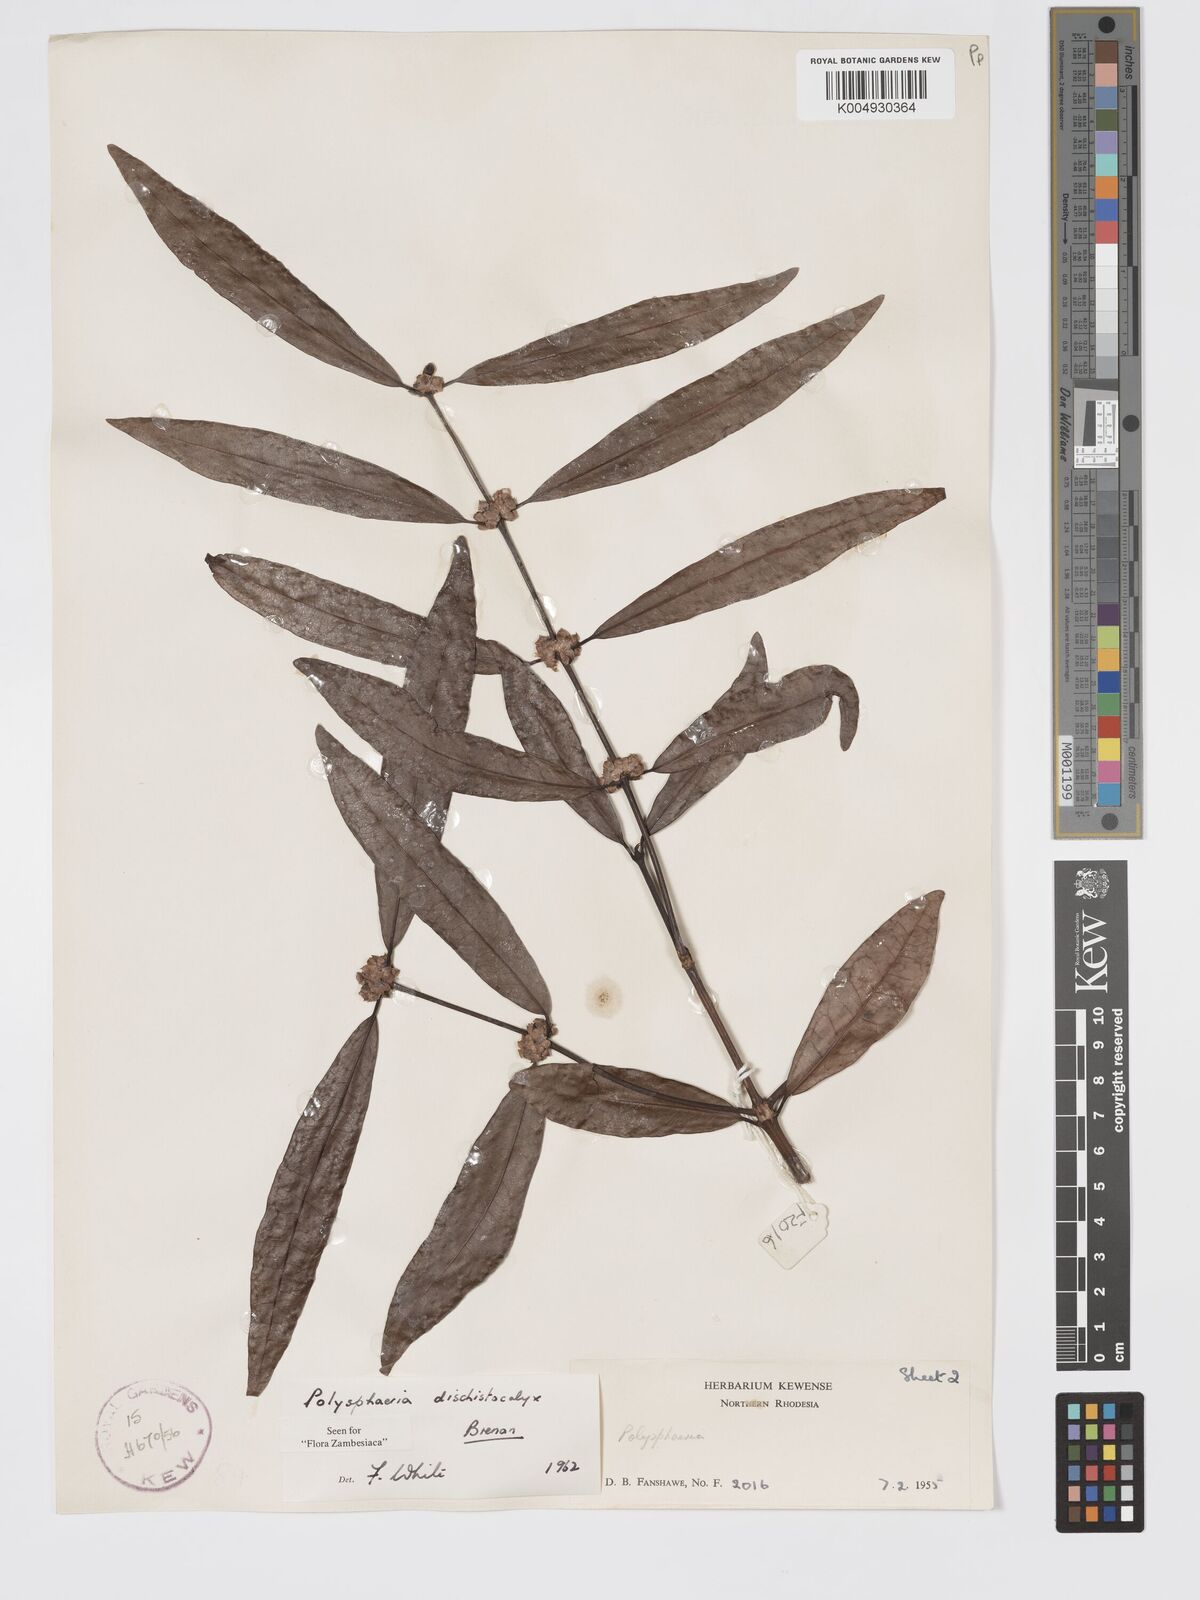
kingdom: Plantae
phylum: Tracheophyta
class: Magnoliopsida
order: Gentianales
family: Rubiaceae
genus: Polysphaeria
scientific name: Polysphaeria dischistocalyx
